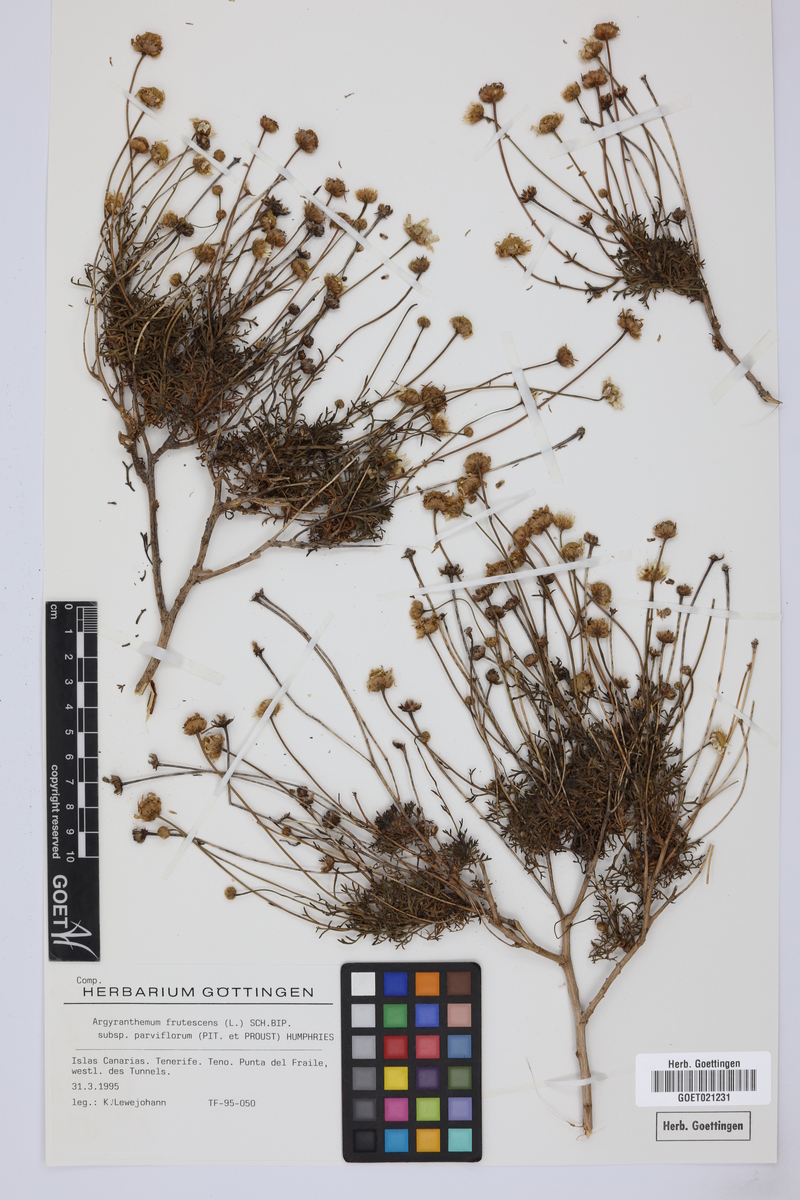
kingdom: Plantae
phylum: Tracheophyta
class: Magnoliopsida
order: Asterales
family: Asteraceae
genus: Argyranthemum
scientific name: Argyranthemum frutescens
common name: Paris daisy
